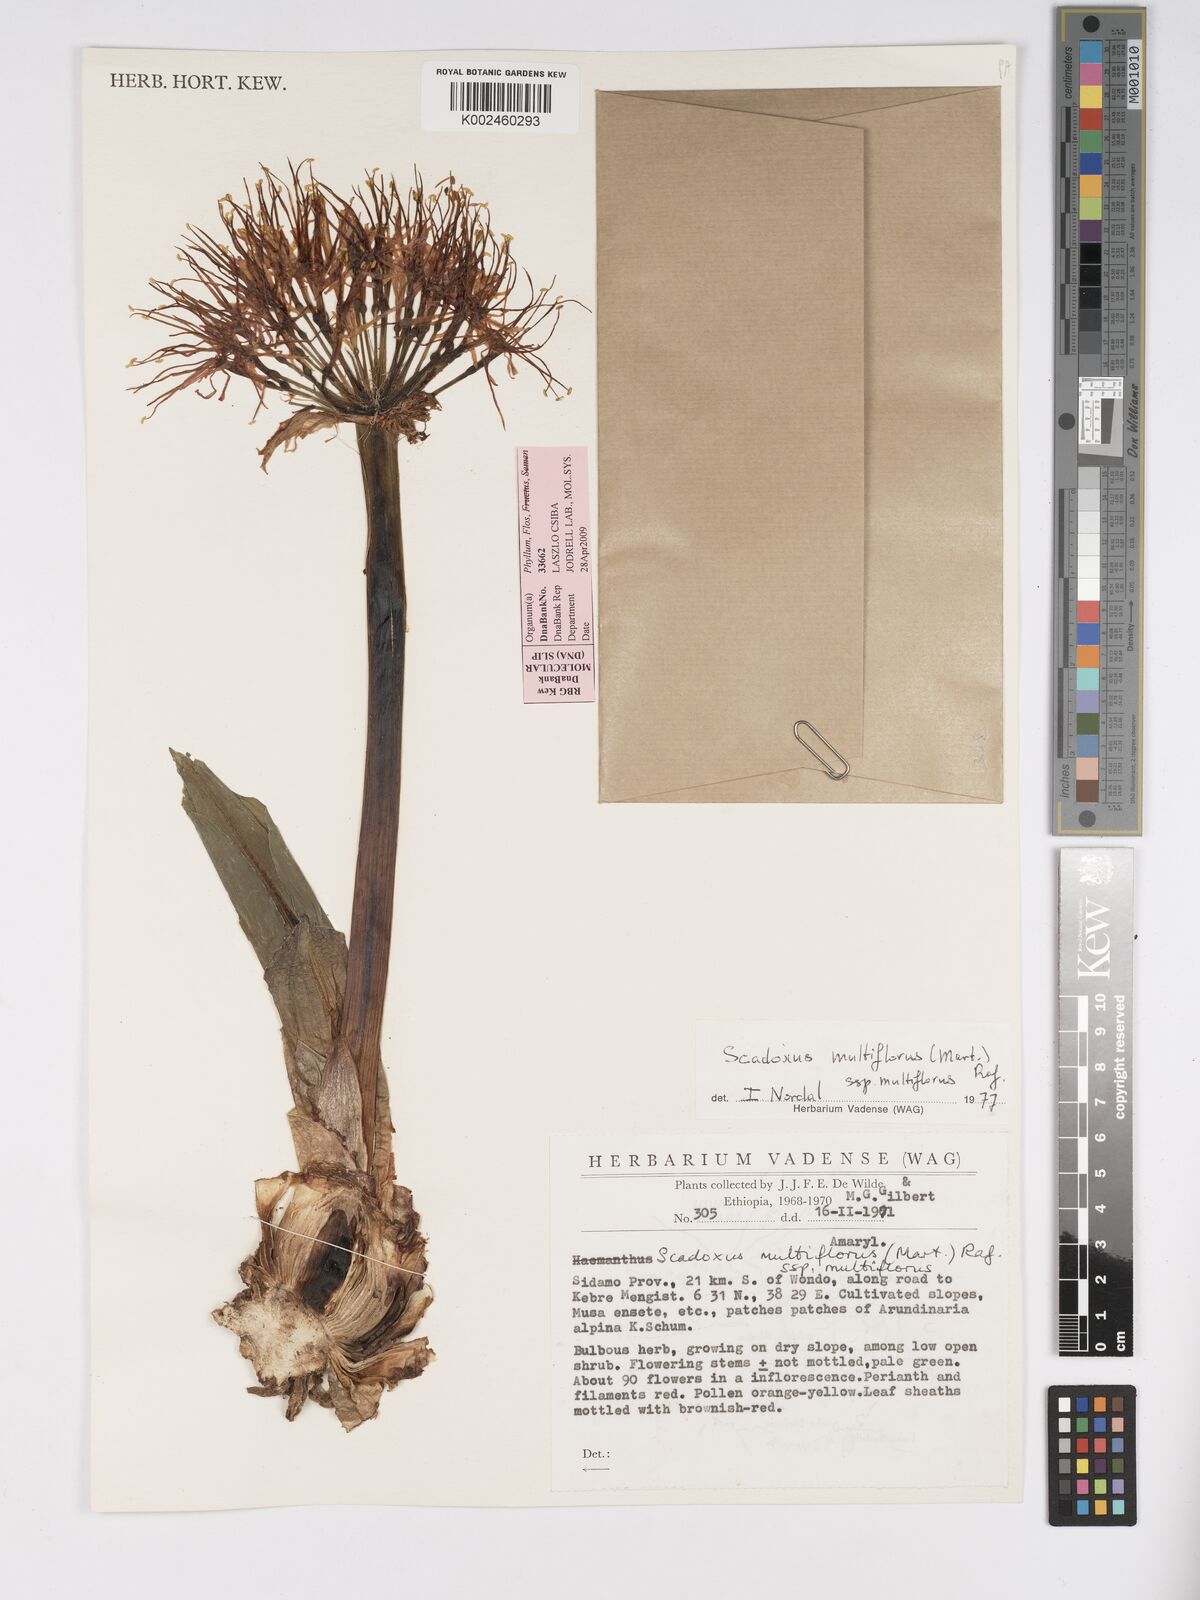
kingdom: Plantae
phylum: Tracheophyta
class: Liliopsida
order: Asparagales
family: Amaryllidaceae
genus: Scadoxus
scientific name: Scadoxus multiflorus
